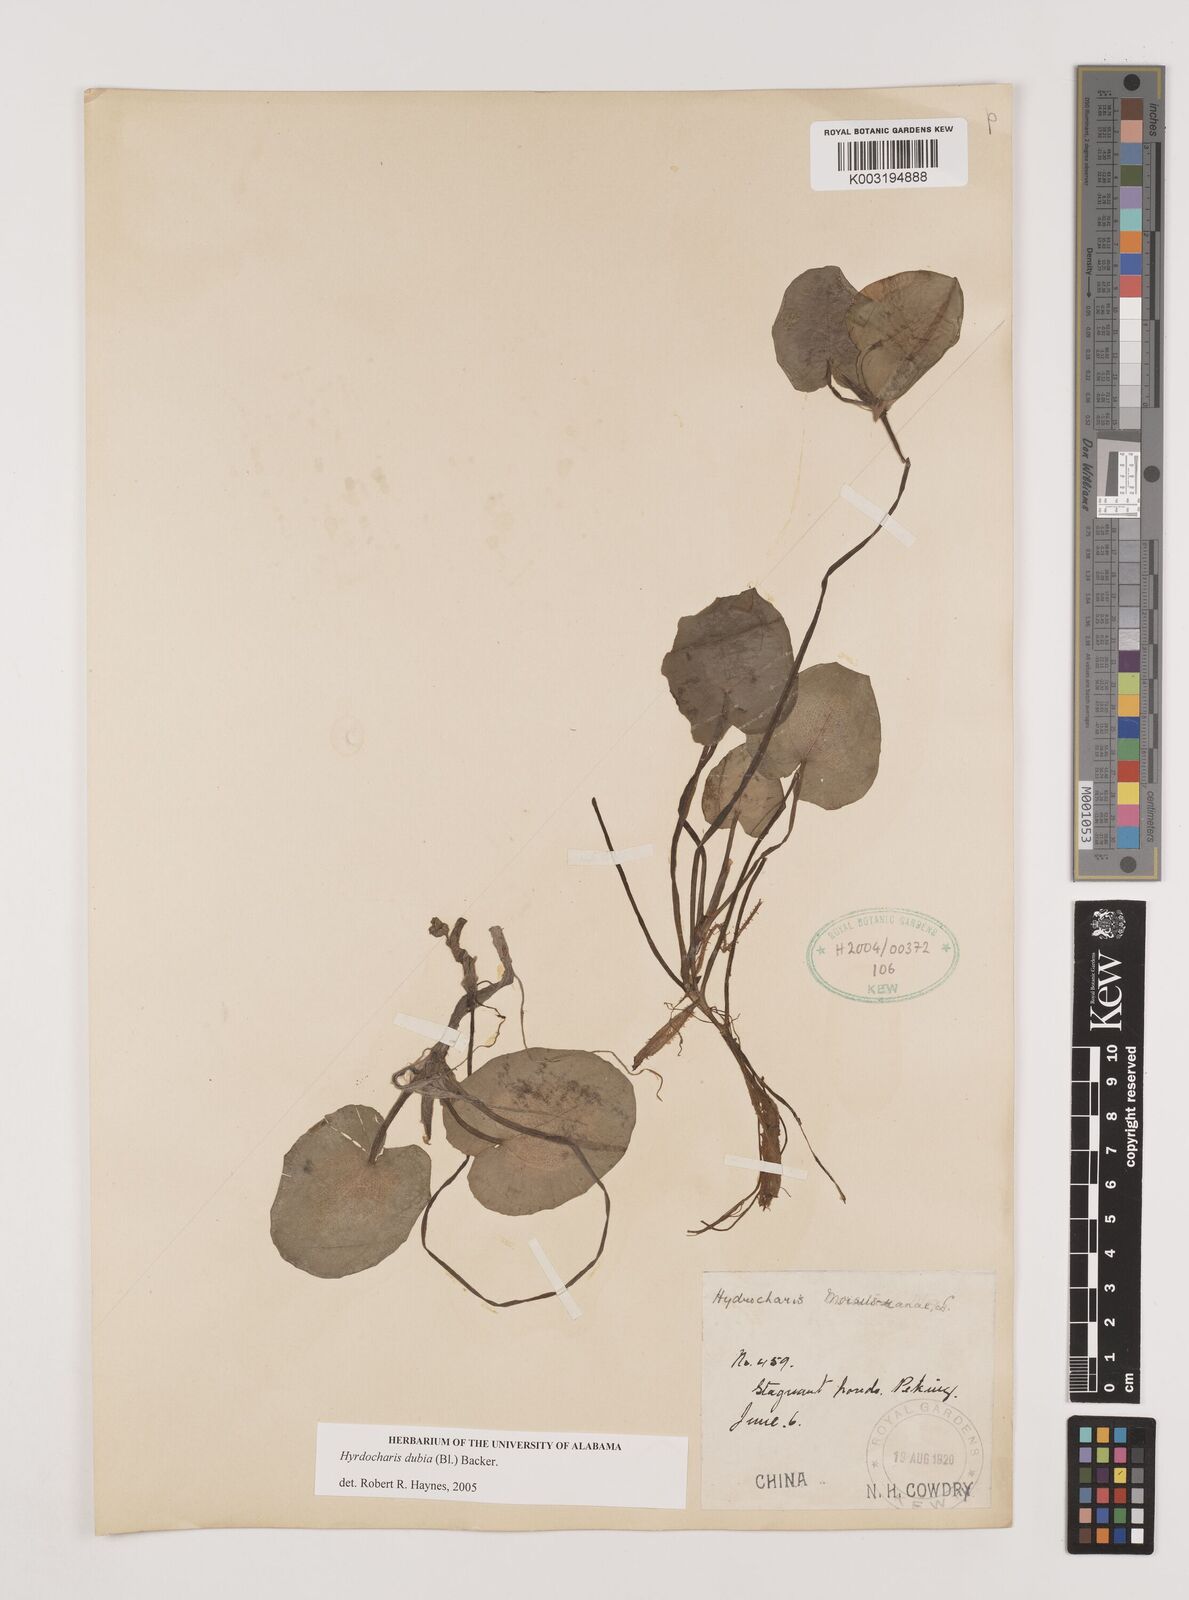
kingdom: Plantae
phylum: Tracheophyta
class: Liliopsida
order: Alismatales
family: Hydrocharitaceae
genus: Hydrocharis
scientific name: Hydrocharis dubia
